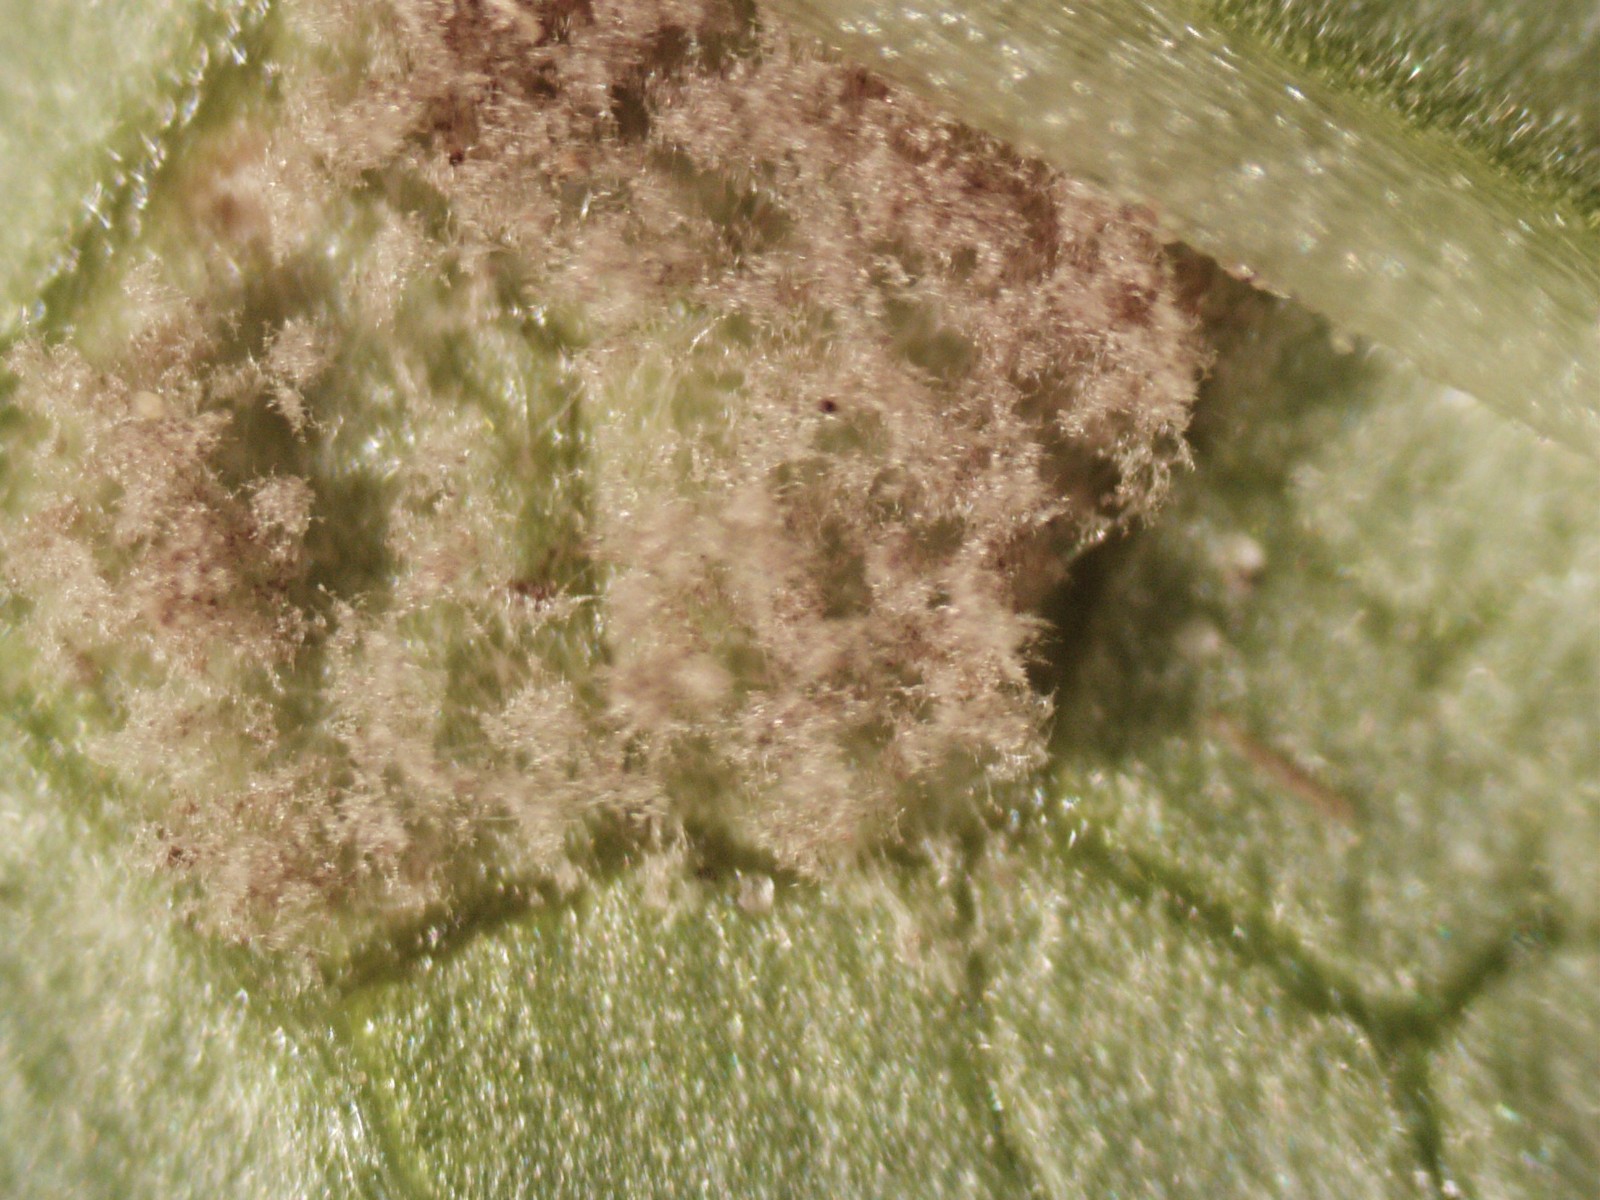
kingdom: Chromista
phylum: Oomycota
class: Peronosporea
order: Peronosporales
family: Peronosporaceae
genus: Peronospora
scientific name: Peronospora sordida
